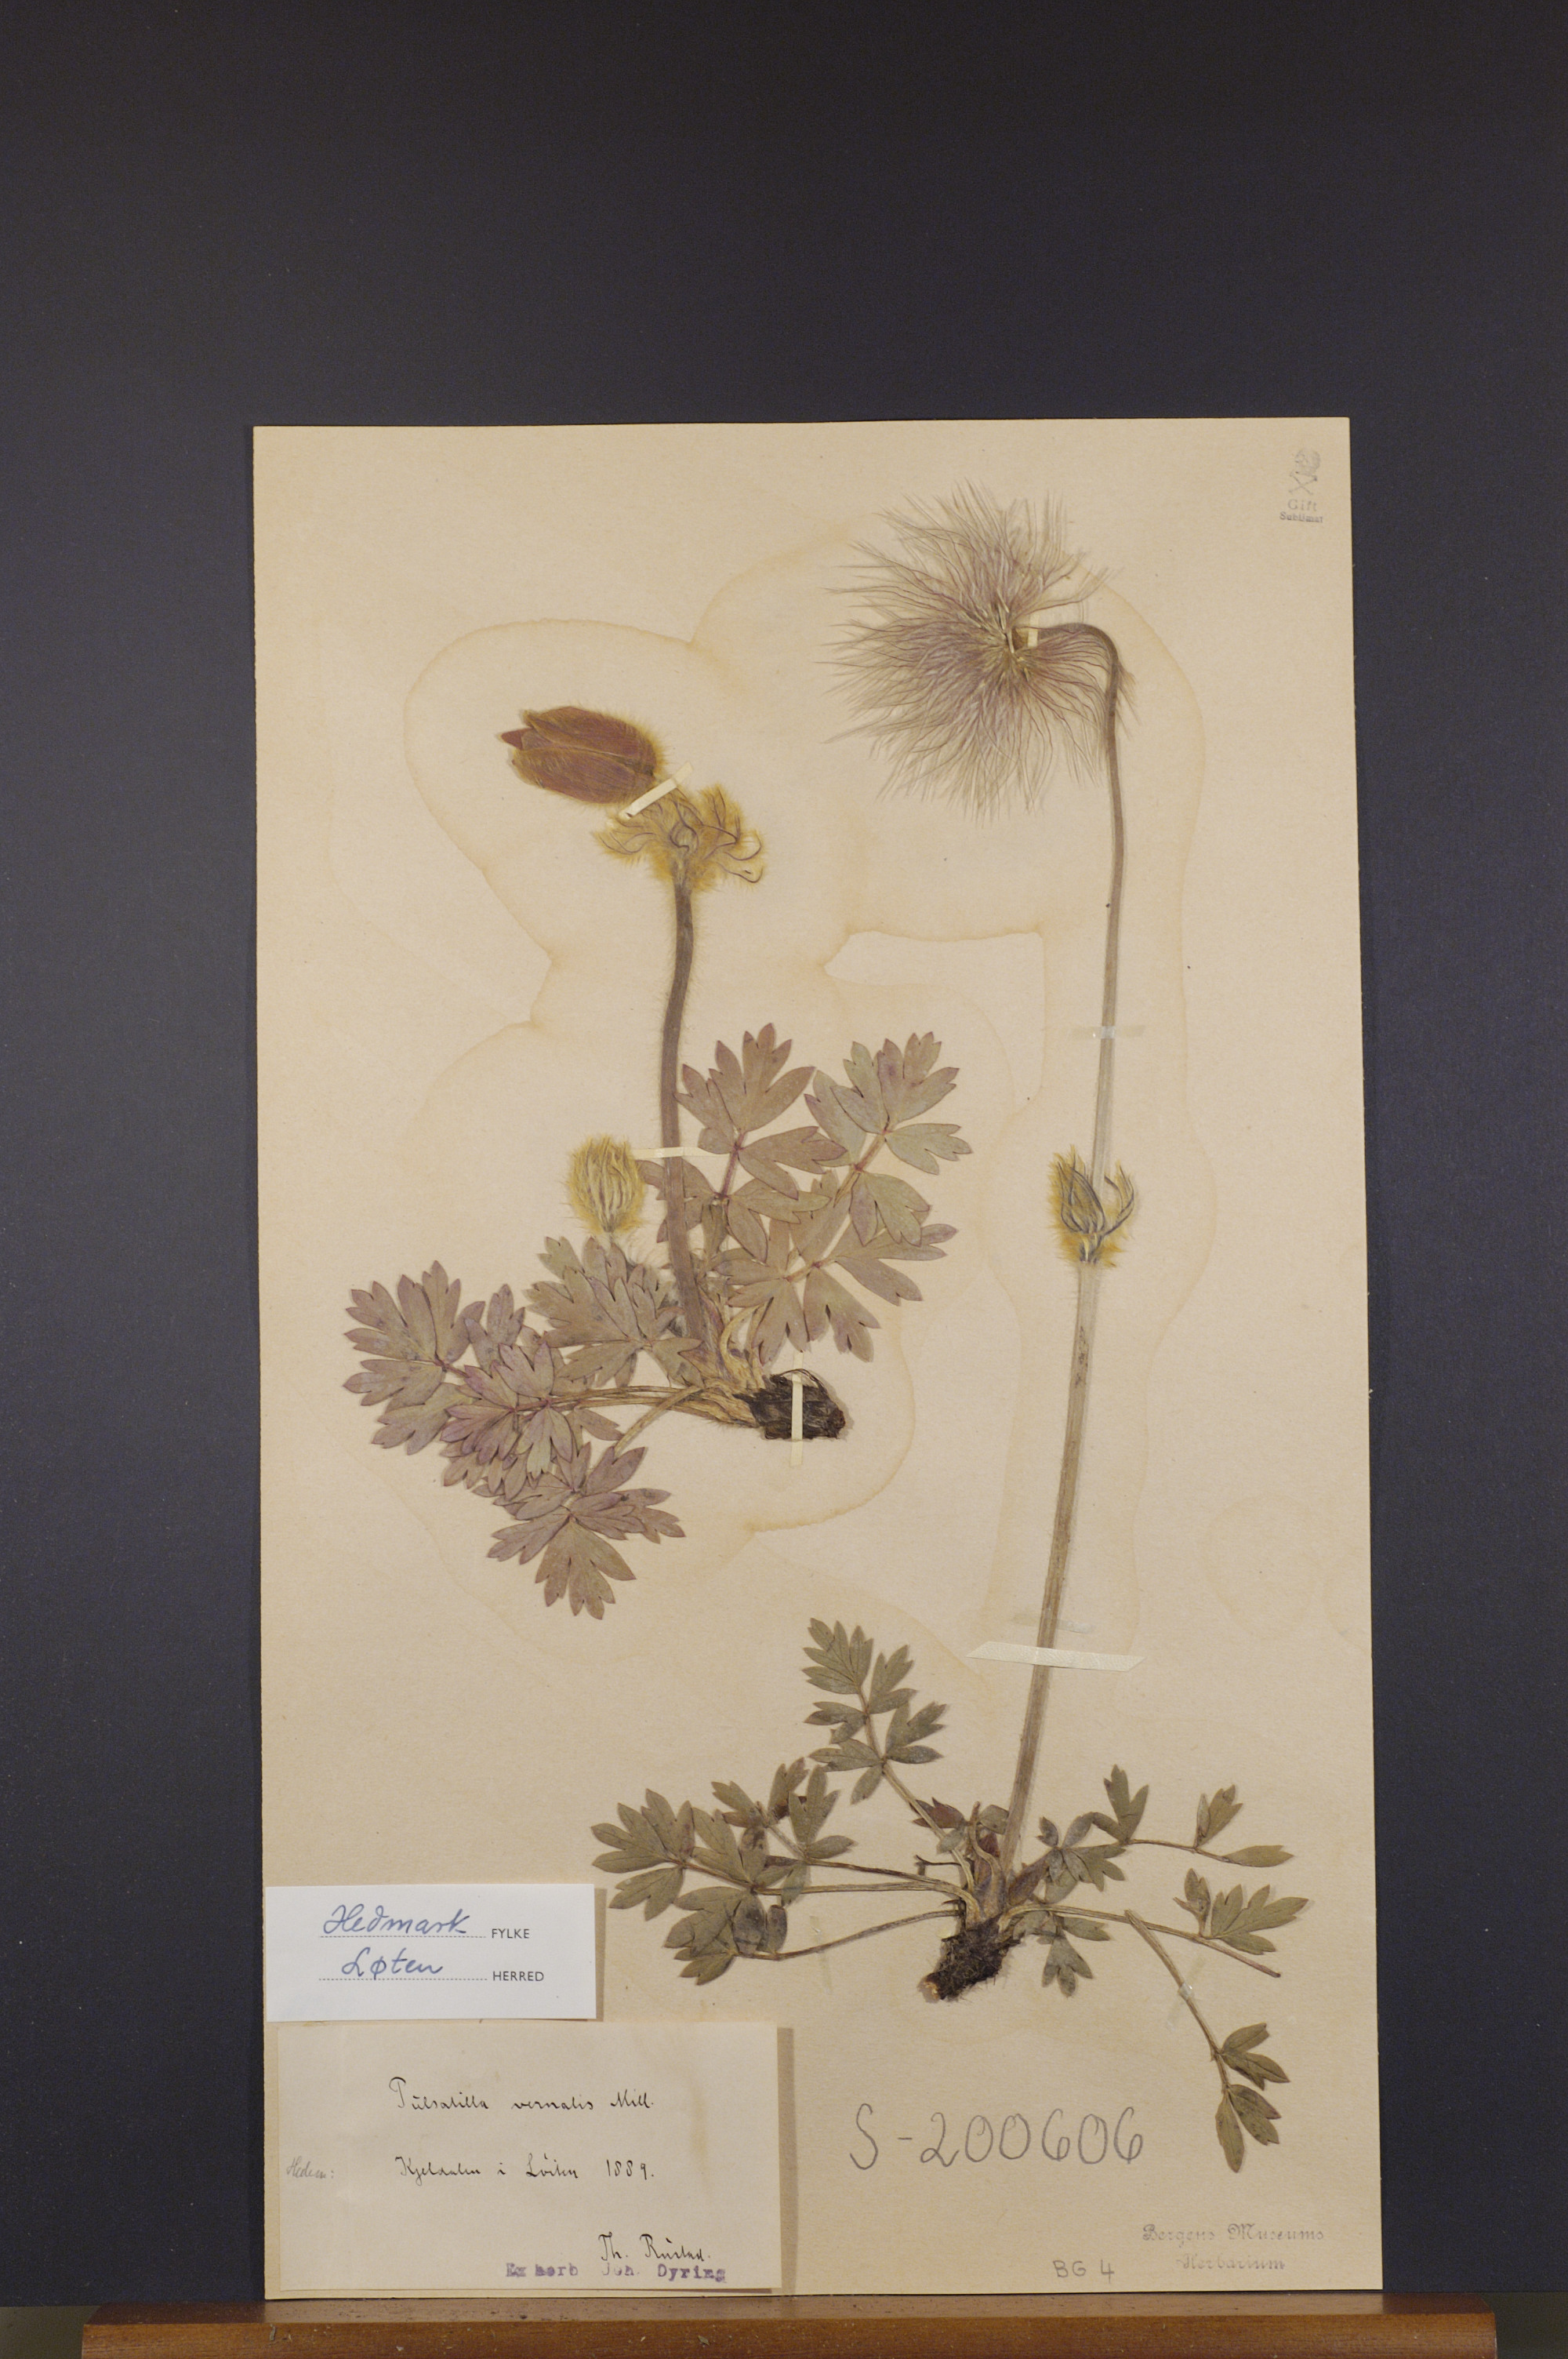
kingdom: Plantae
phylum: Tracheophyta
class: Magnoliopsida
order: Ranunculales
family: Ranunculaceae
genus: Pulsatilla
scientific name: Pulsatilla vernalis
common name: Spring pasque flower
